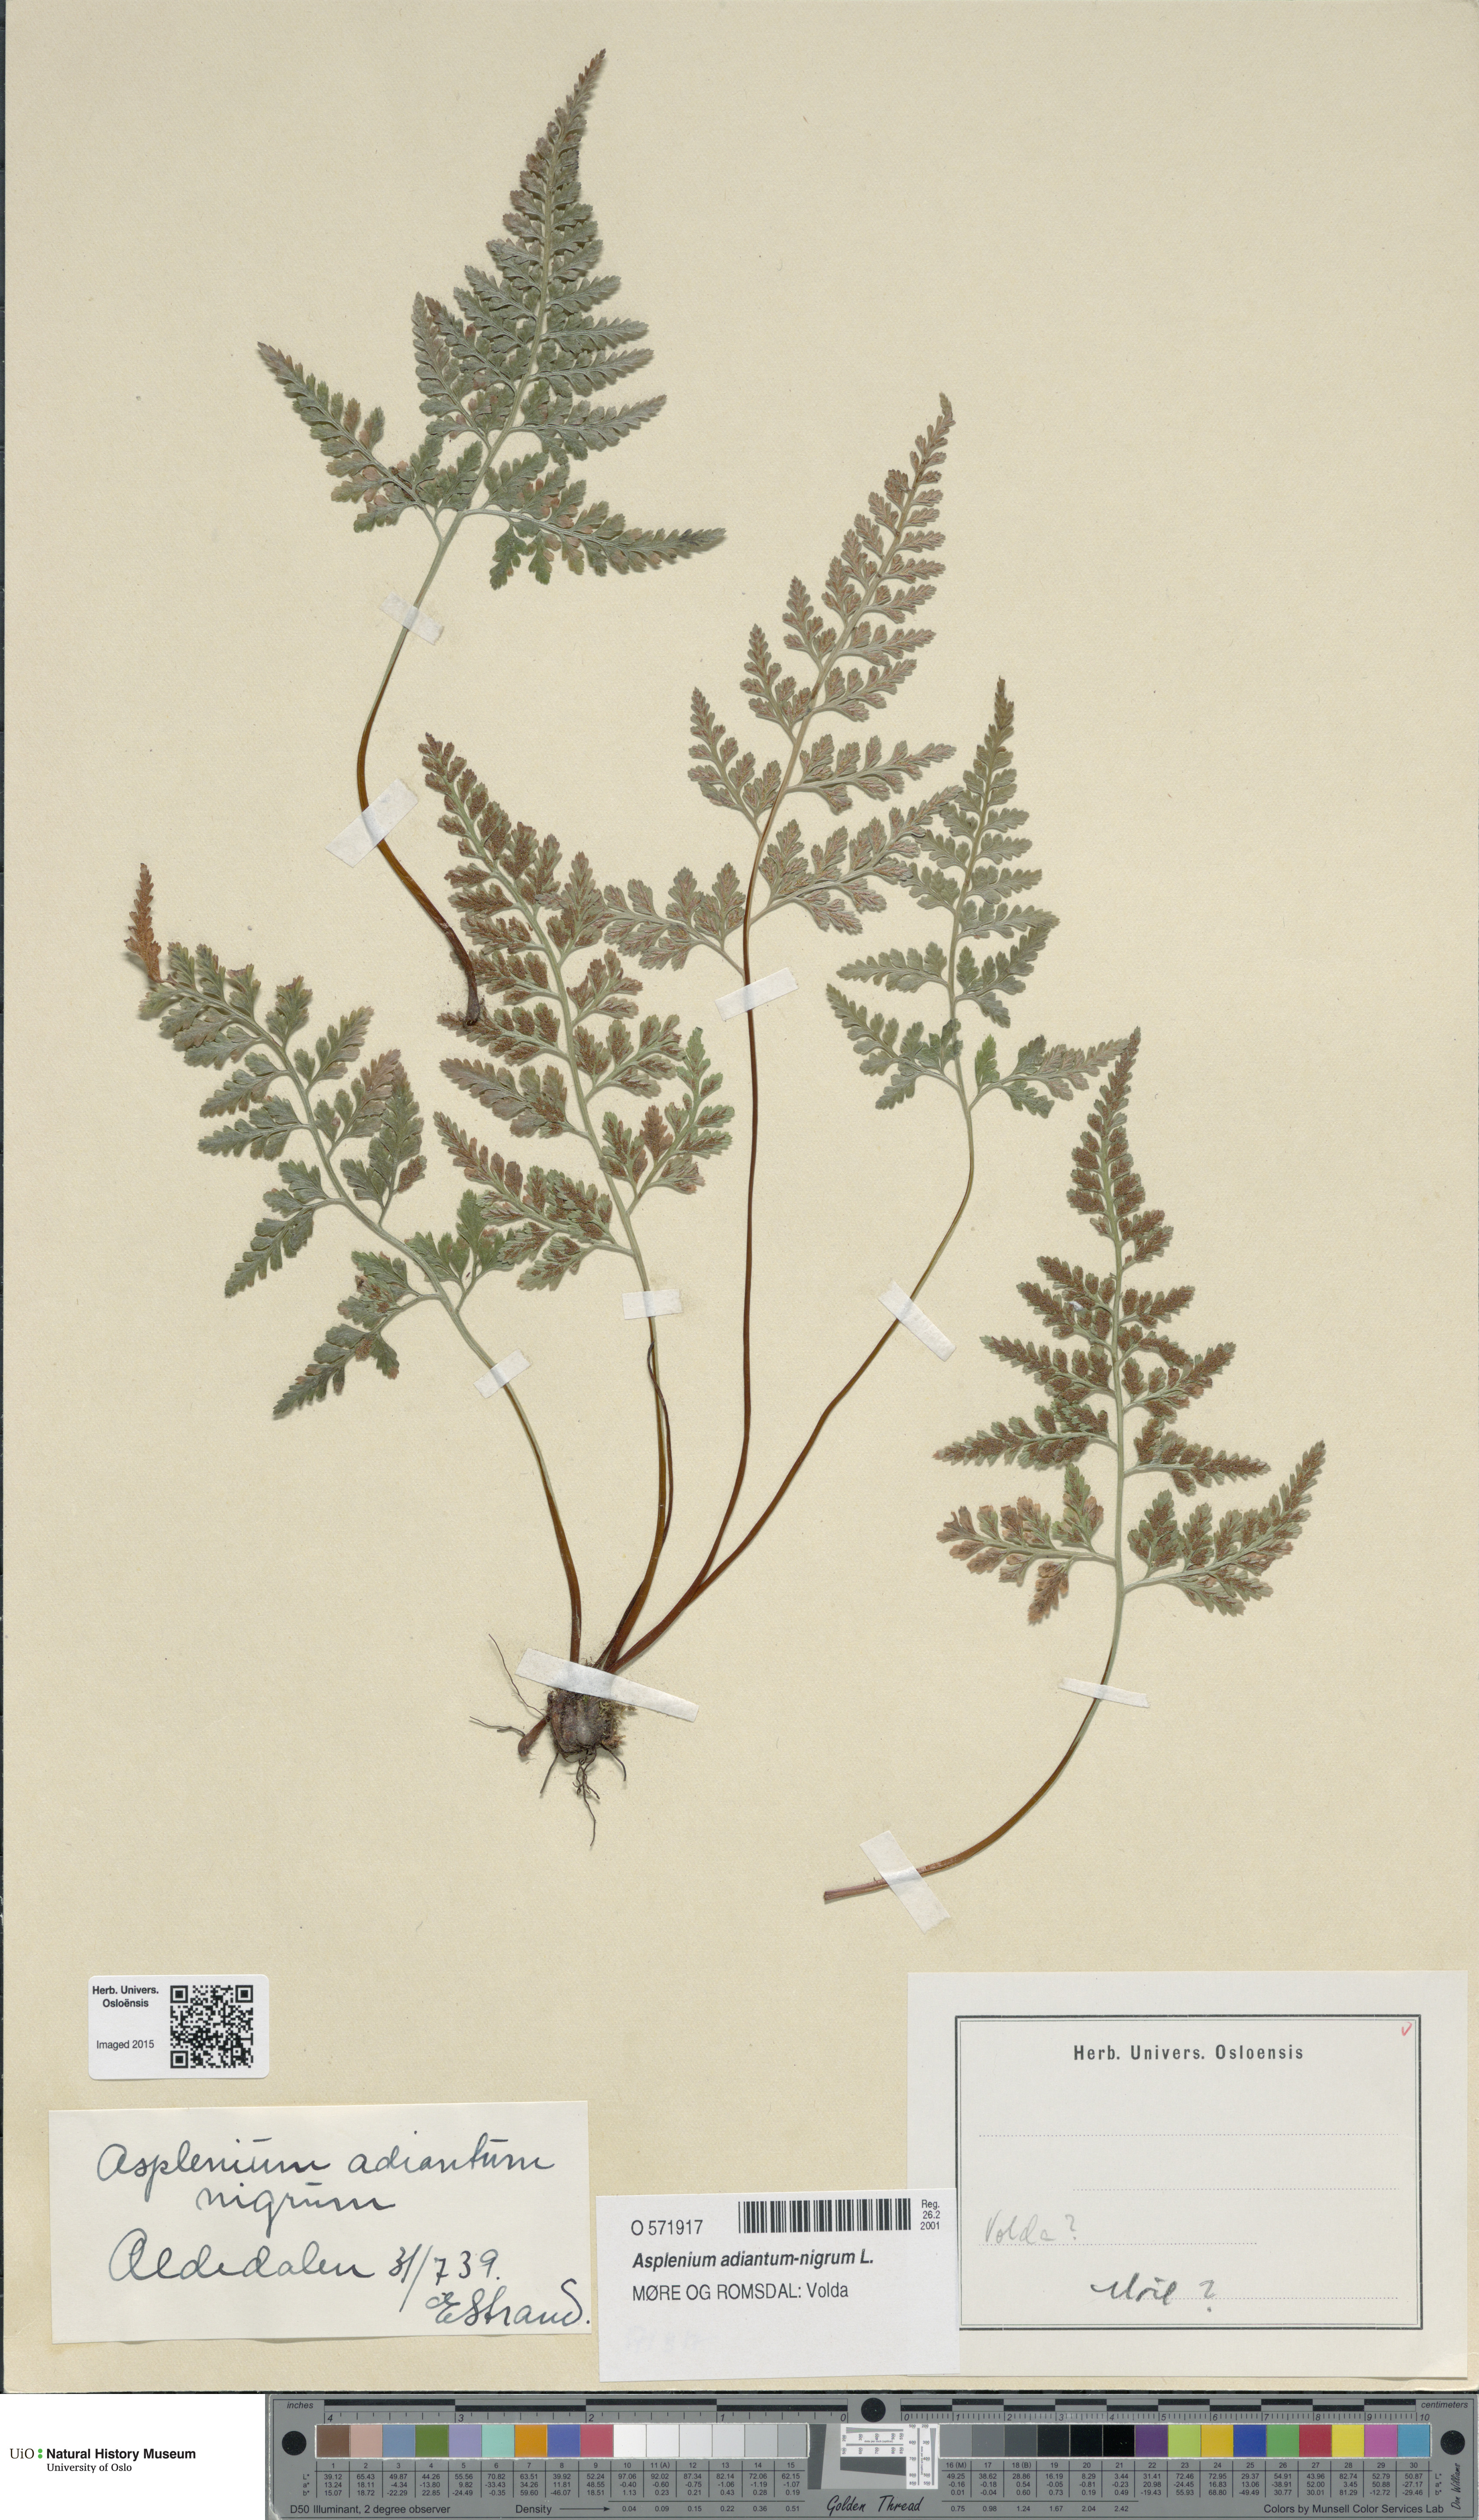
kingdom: Plantae
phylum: Tracheophyta
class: Polypodiopsida
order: Polypodiales
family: Aspleniaceae
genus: Asplenium
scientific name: Asplenium adiantum-nigrum
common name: Black spleenwort
